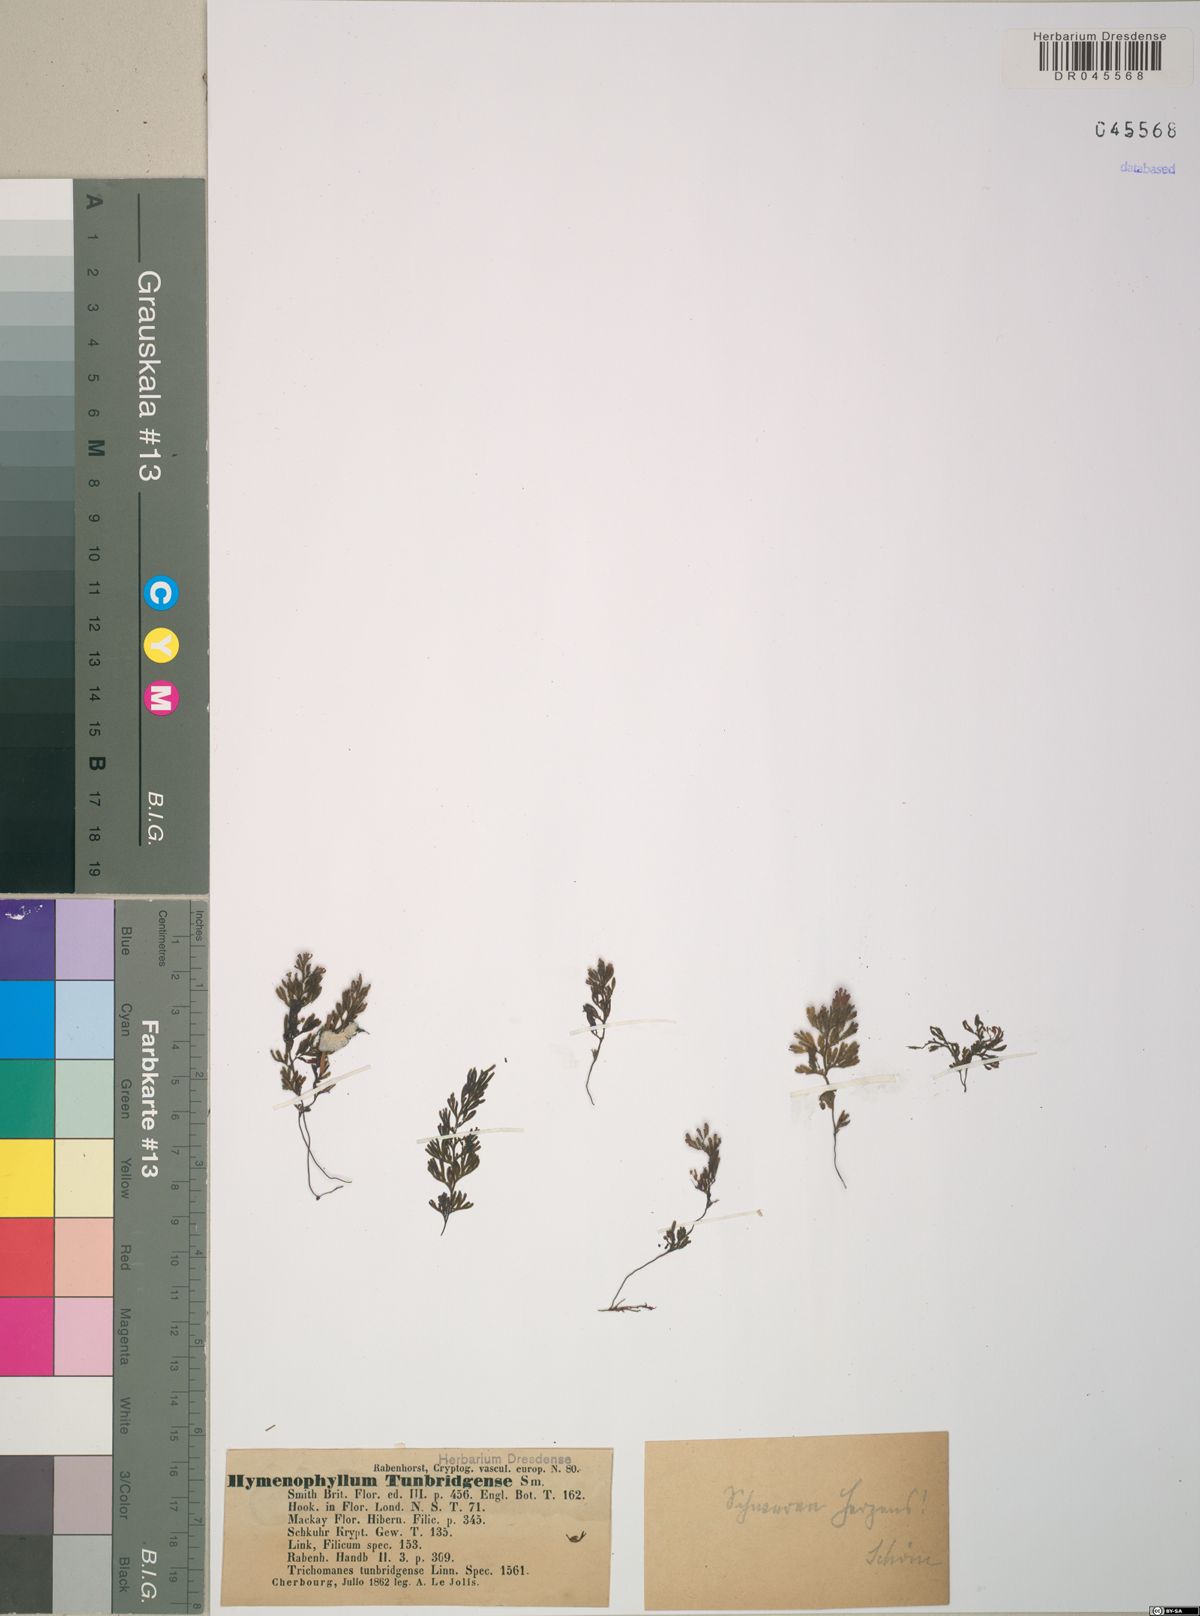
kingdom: Plantae
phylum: Tracheophyta
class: Polypodiopsida
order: Hymenophyllales
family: Hymenophyllaceae
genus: Hymenophyllum
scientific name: Hymenophyllum tunbrigense
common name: Tunbridge filmy fern
